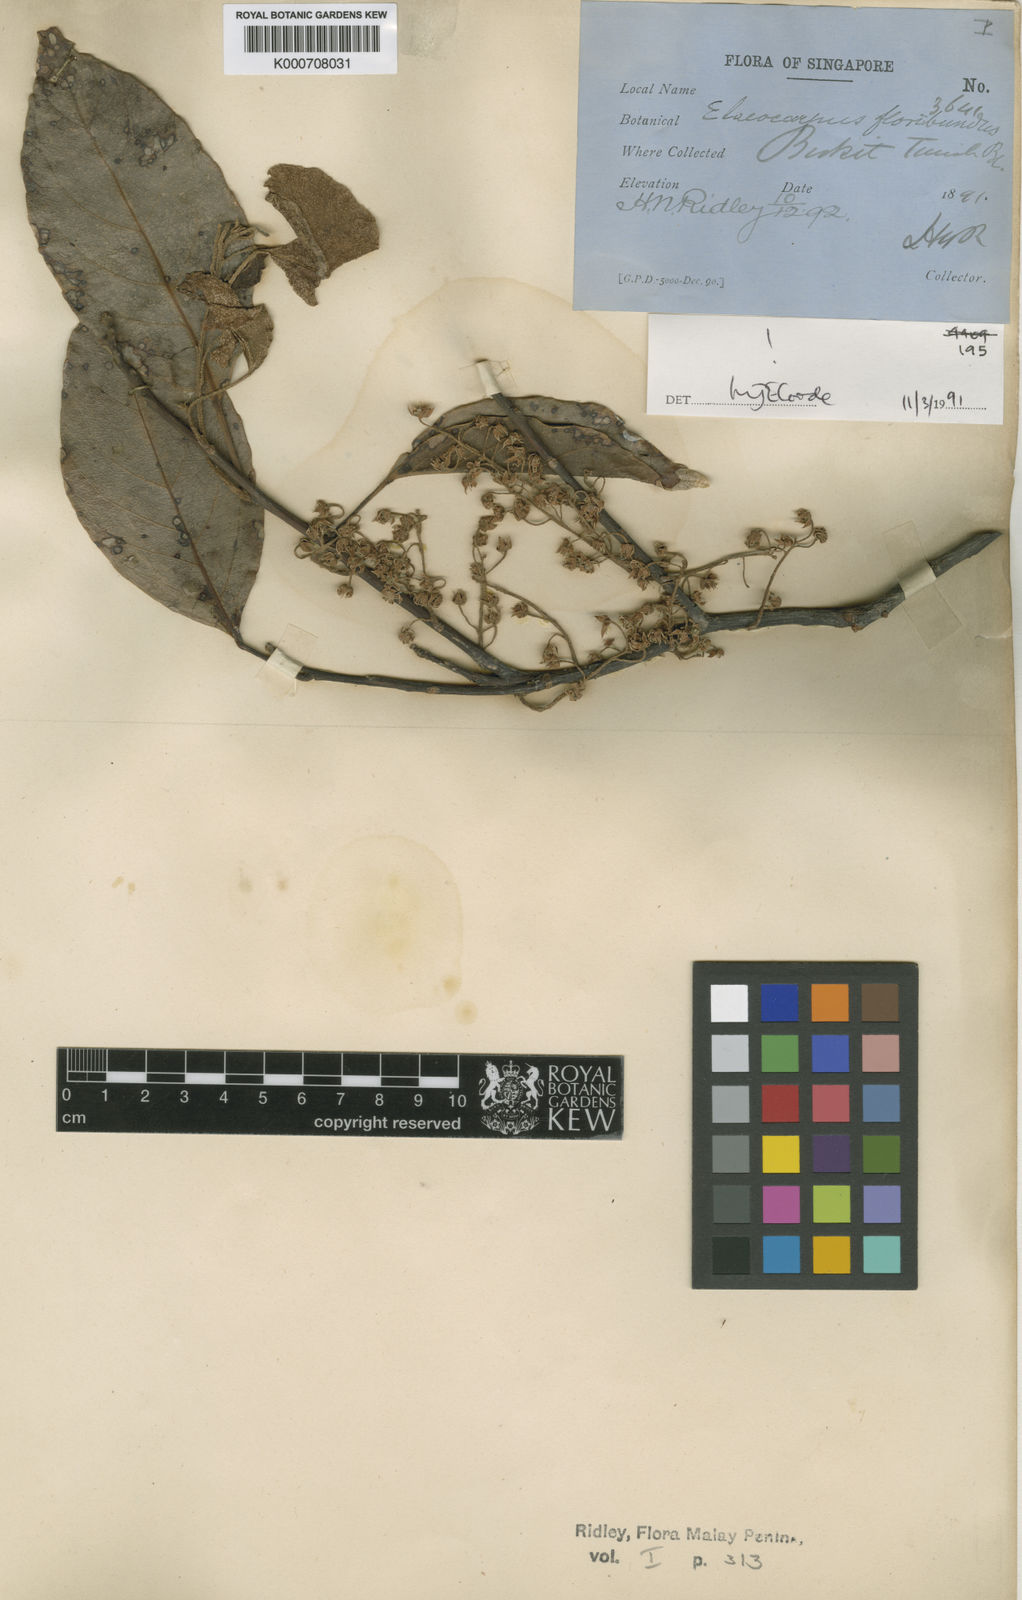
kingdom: Plantae
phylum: Tracheophyta
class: Magnoliopsida
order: Oxalidales
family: Elaeocarpaceae
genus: Elaeocarpus
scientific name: Elaeocarpus floribundus
